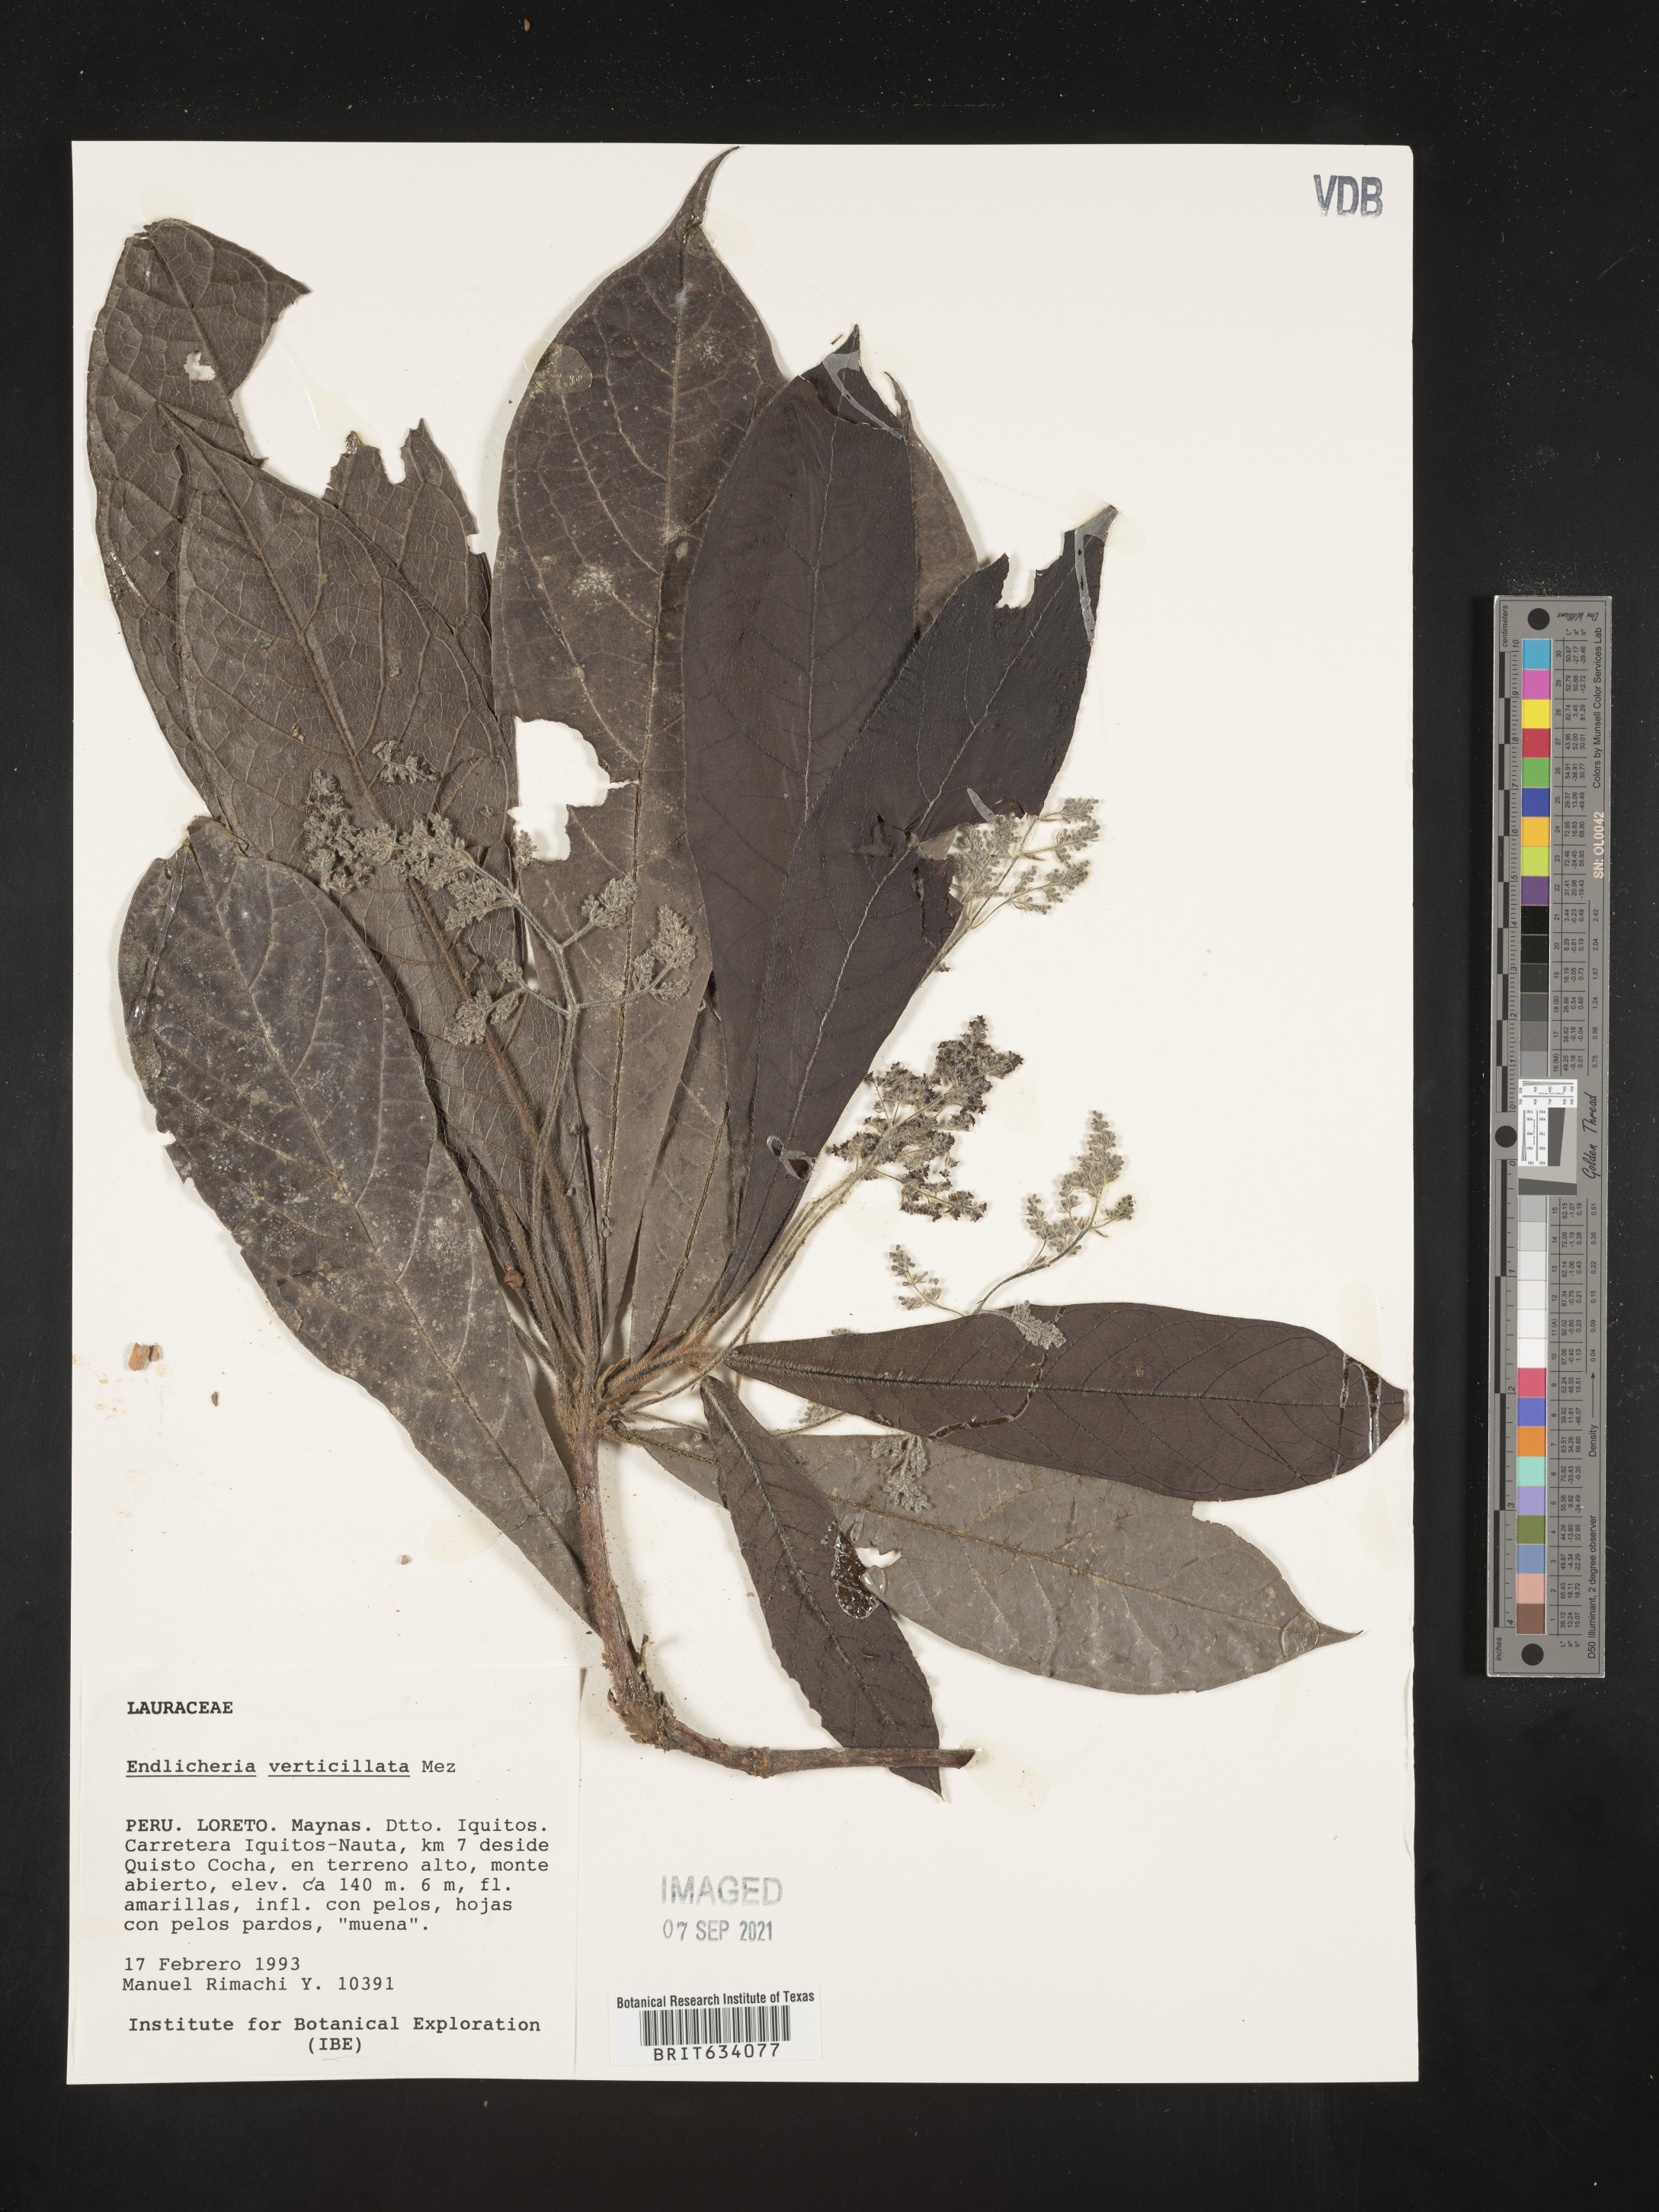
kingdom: Plantae
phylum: Tracheophyta
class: Magnoliopsida
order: Laurales
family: Lauraceae
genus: Endlicheria
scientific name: Endlicheria
